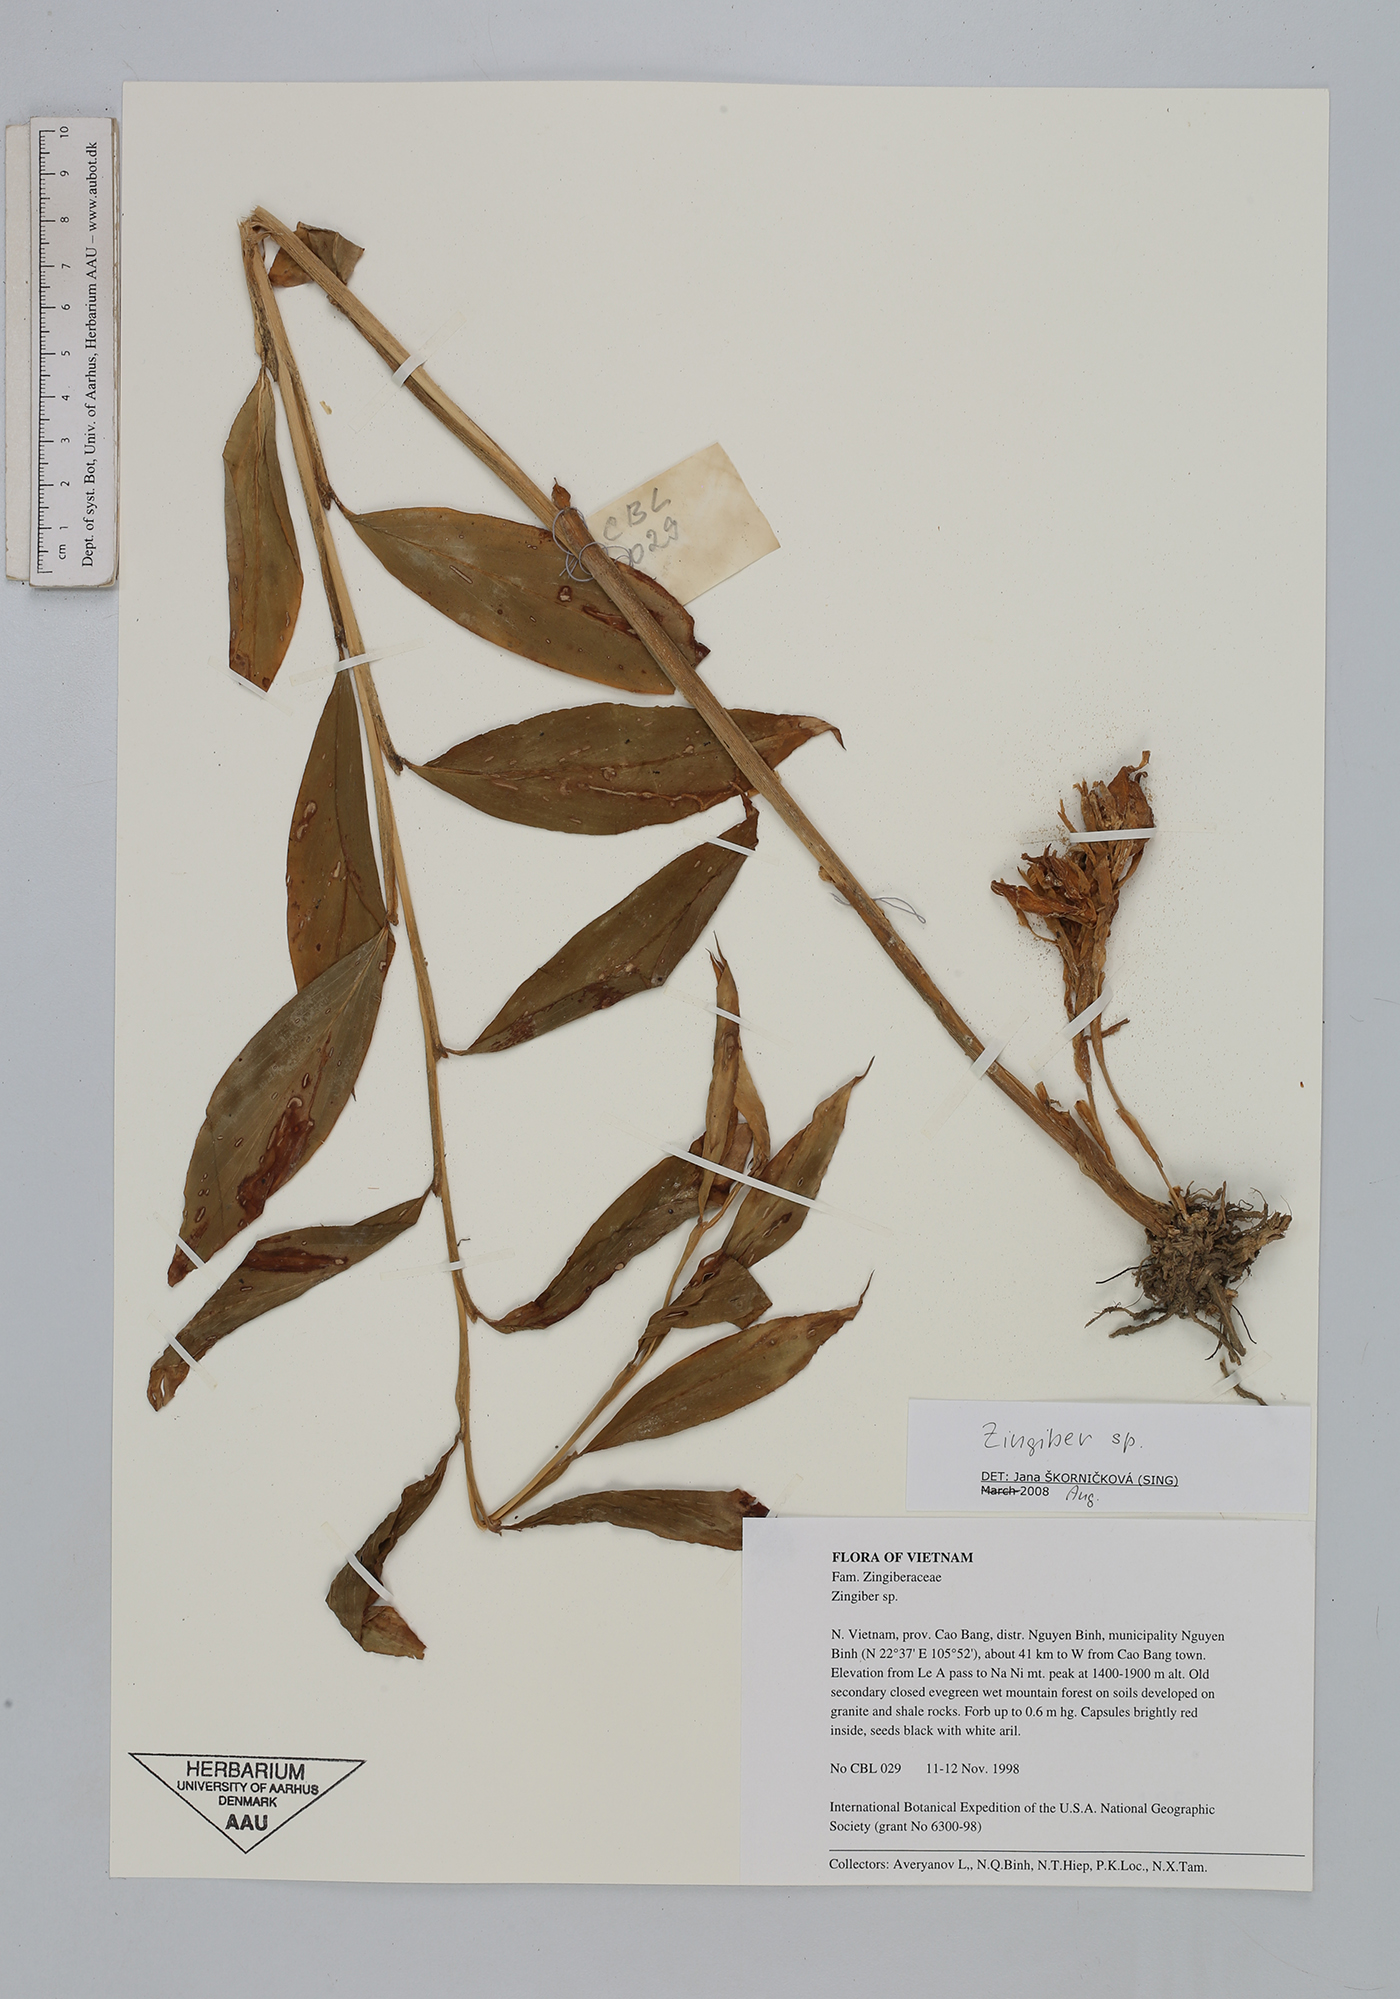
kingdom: Plantae
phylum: Tracheophyta
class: Liliopsida
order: Zingiberales
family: Zingiberaceae
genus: Zingiber
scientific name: Zingiber
